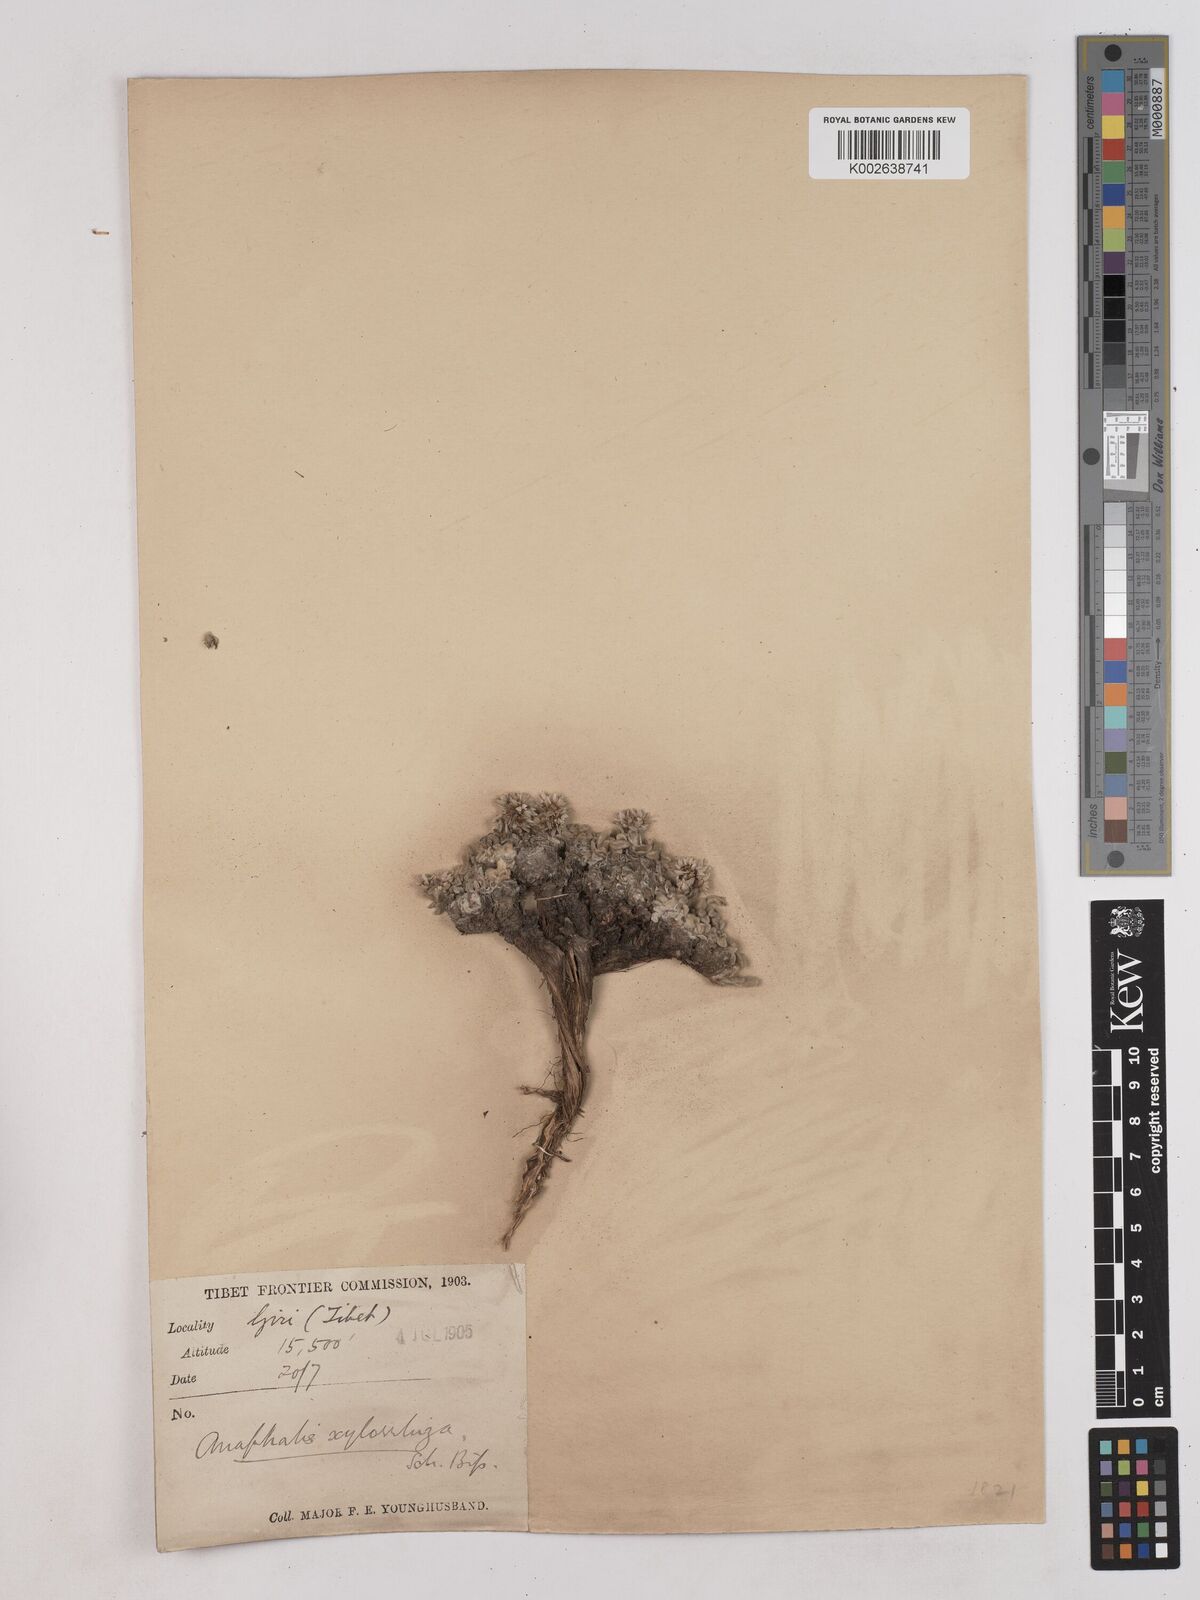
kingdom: Plantae
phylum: Tracheophyta
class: Magnoliopsida
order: Asterales
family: Asteraceae
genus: Anaphalis
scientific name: Anaphalis xylorhiza
